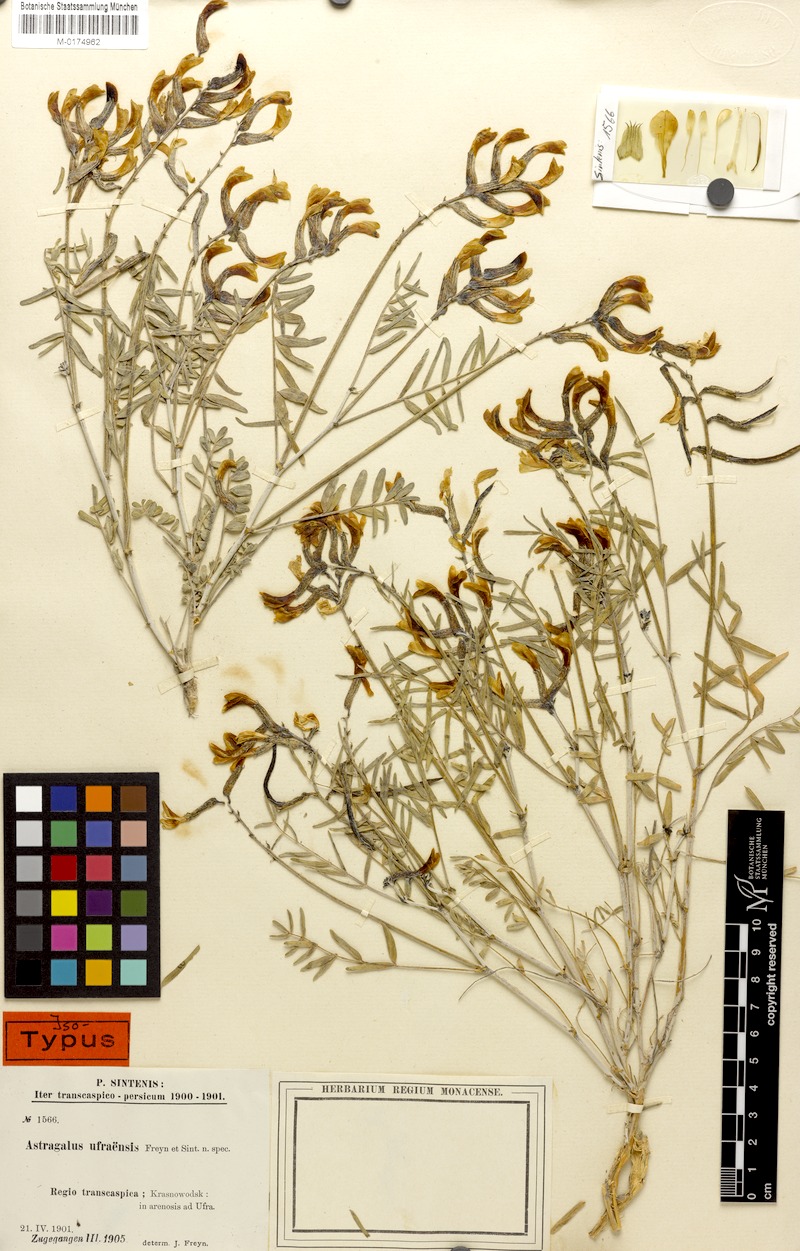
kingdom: Plantae
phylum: Tracheophyta
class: Magnoliopsida
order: Fabales
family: Fabaceae
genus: Astragalus
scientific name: Astragalus juratzkanus
